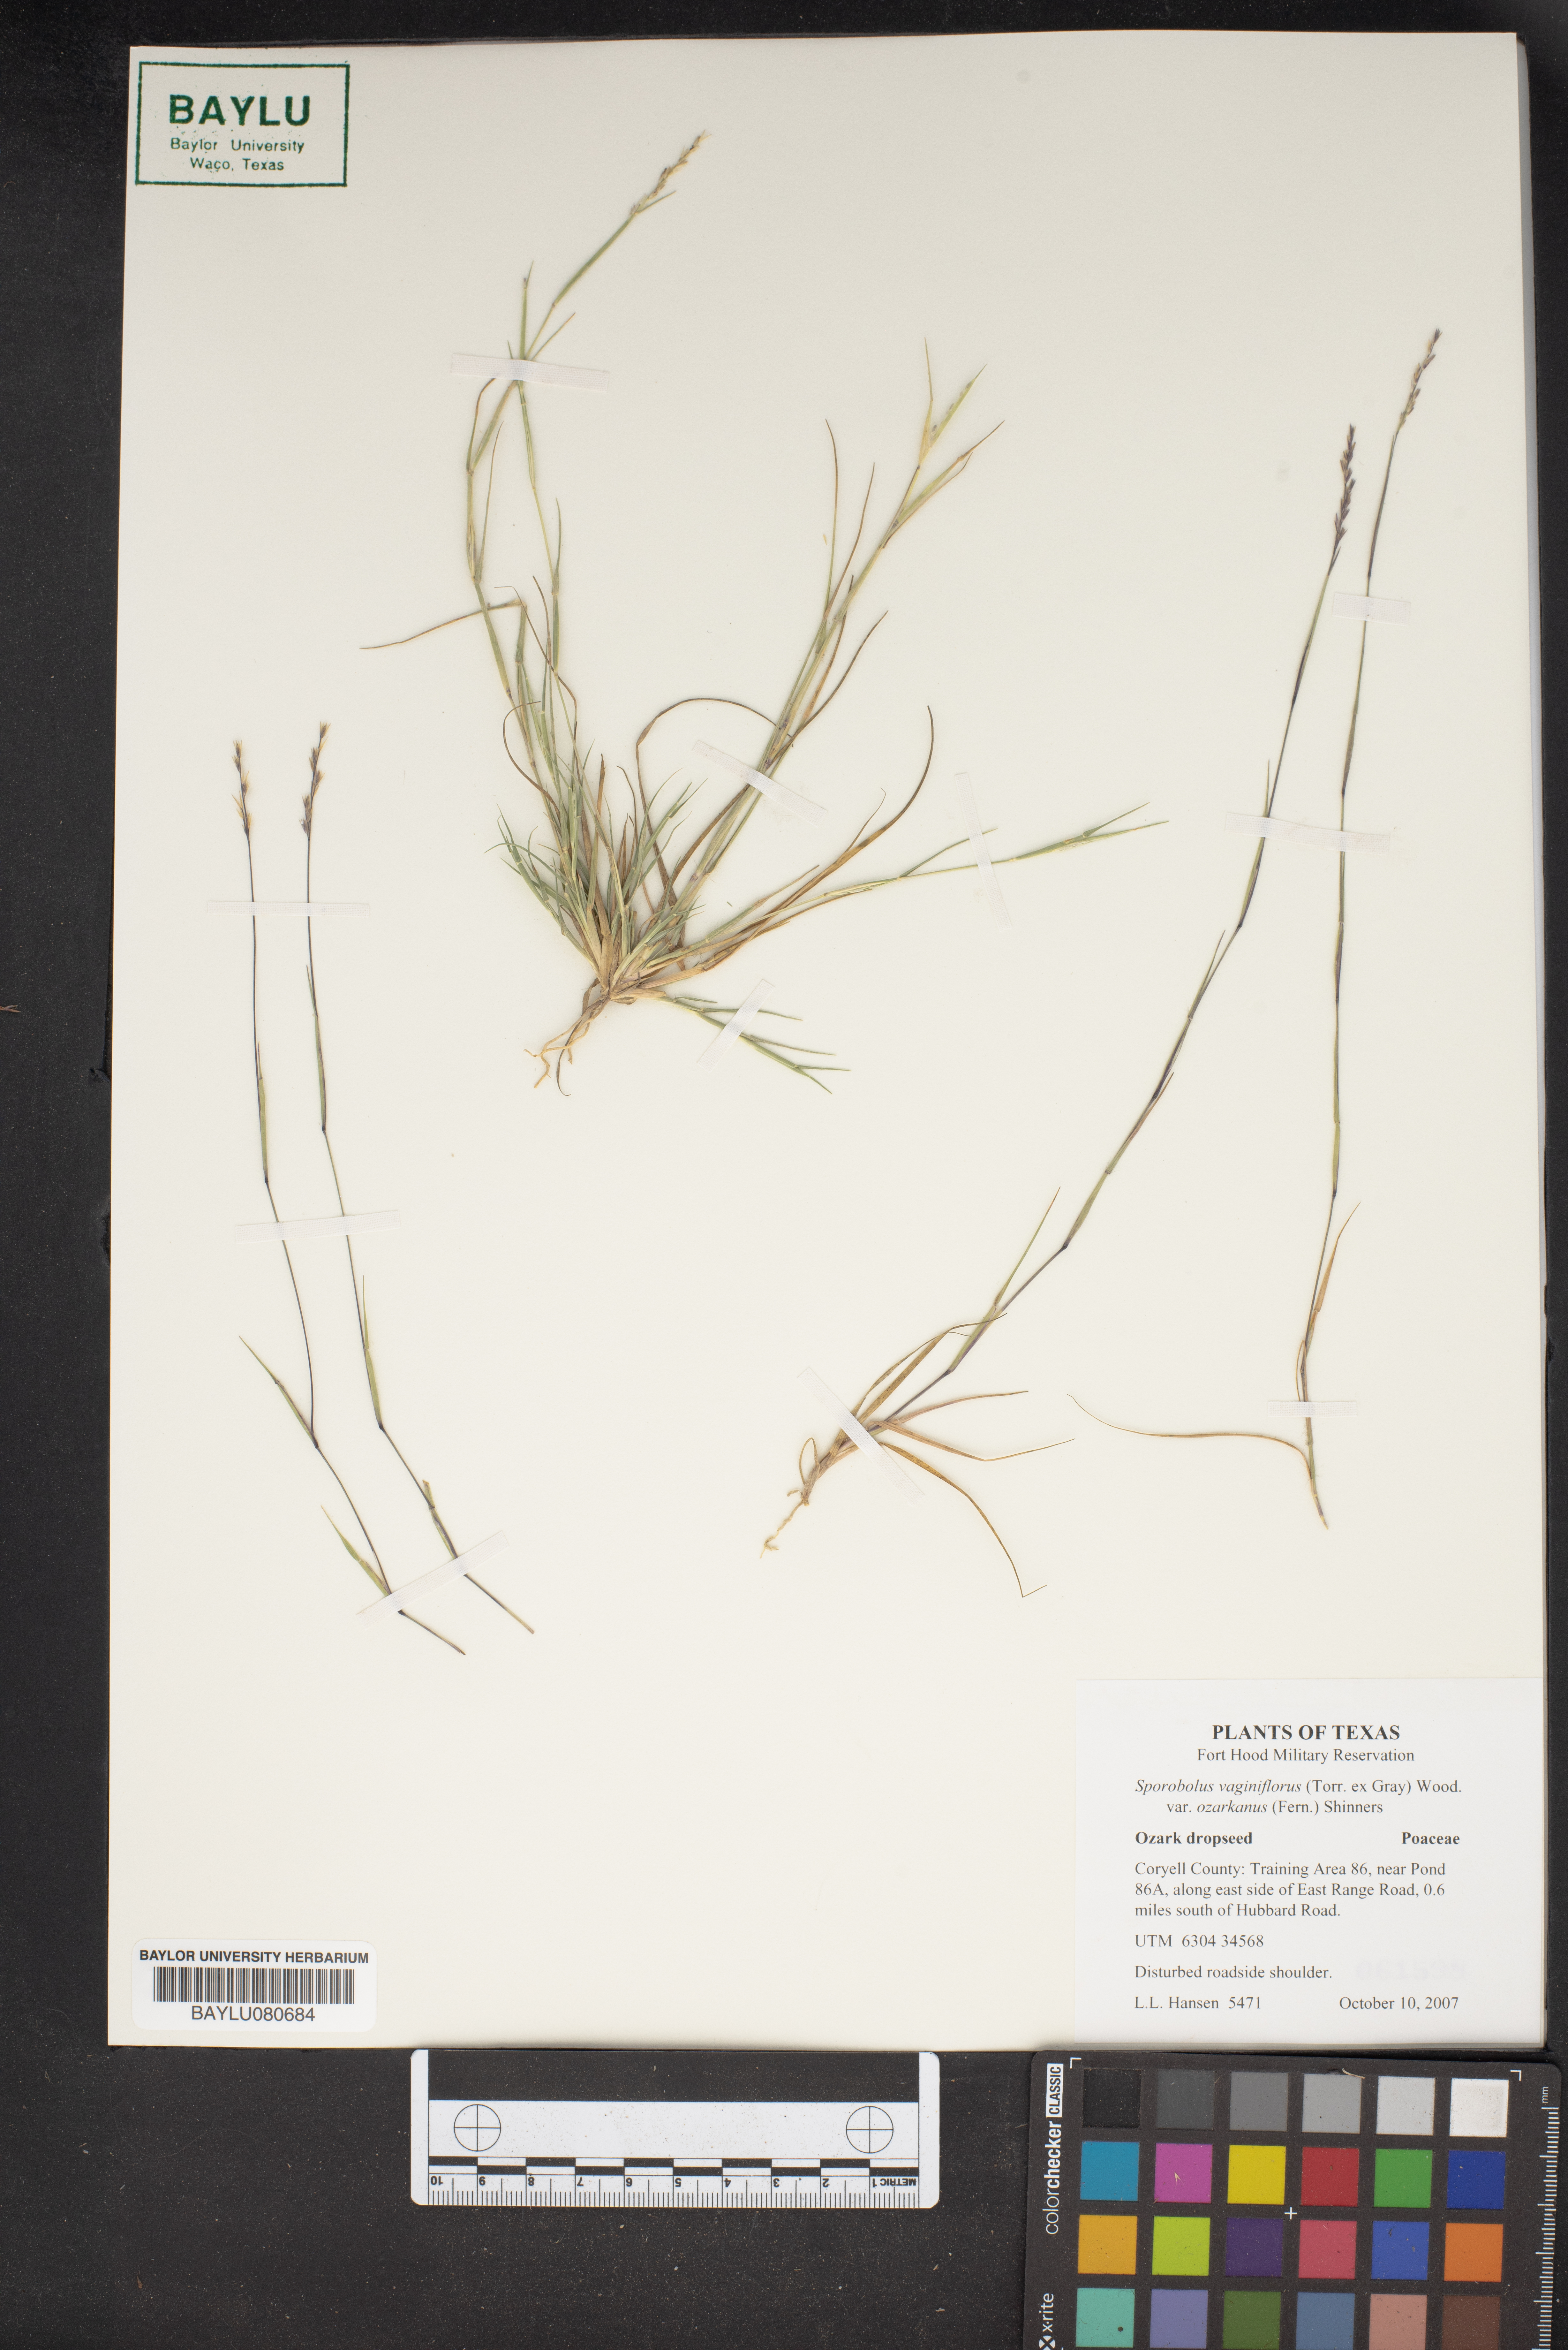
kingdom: Plantae
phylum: Tracheophyta
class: Liliopsida
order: Poales
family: Poaceae
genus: Sporobolus
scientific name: Sporobolus vaginiflorus
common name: Poverty dropseed
